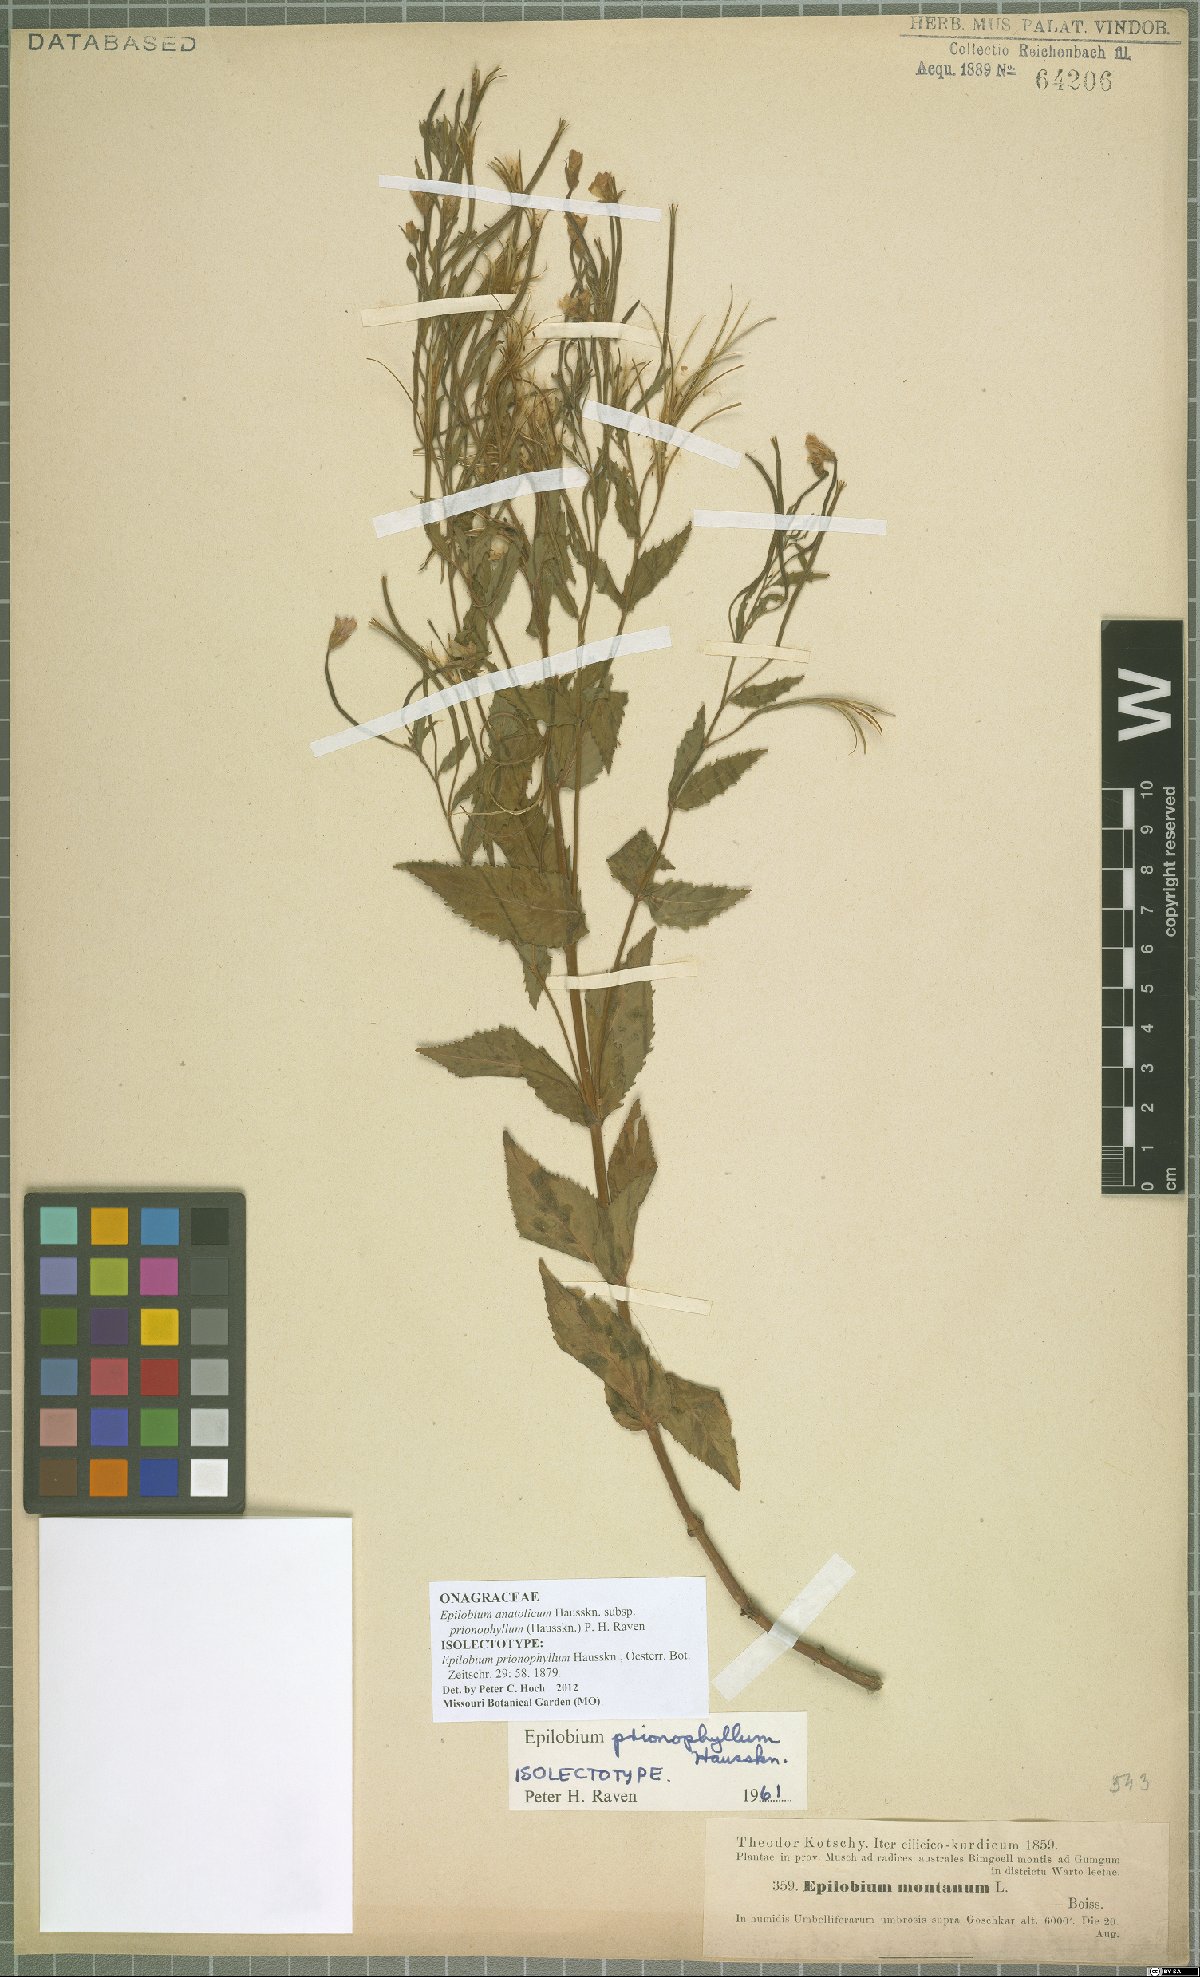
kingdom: Plantae
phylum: Tracheophyta
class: Magnoliopsida
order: Myrtales
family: Onagraceae
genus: Epilobium
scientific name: Epilobium anatolicum
